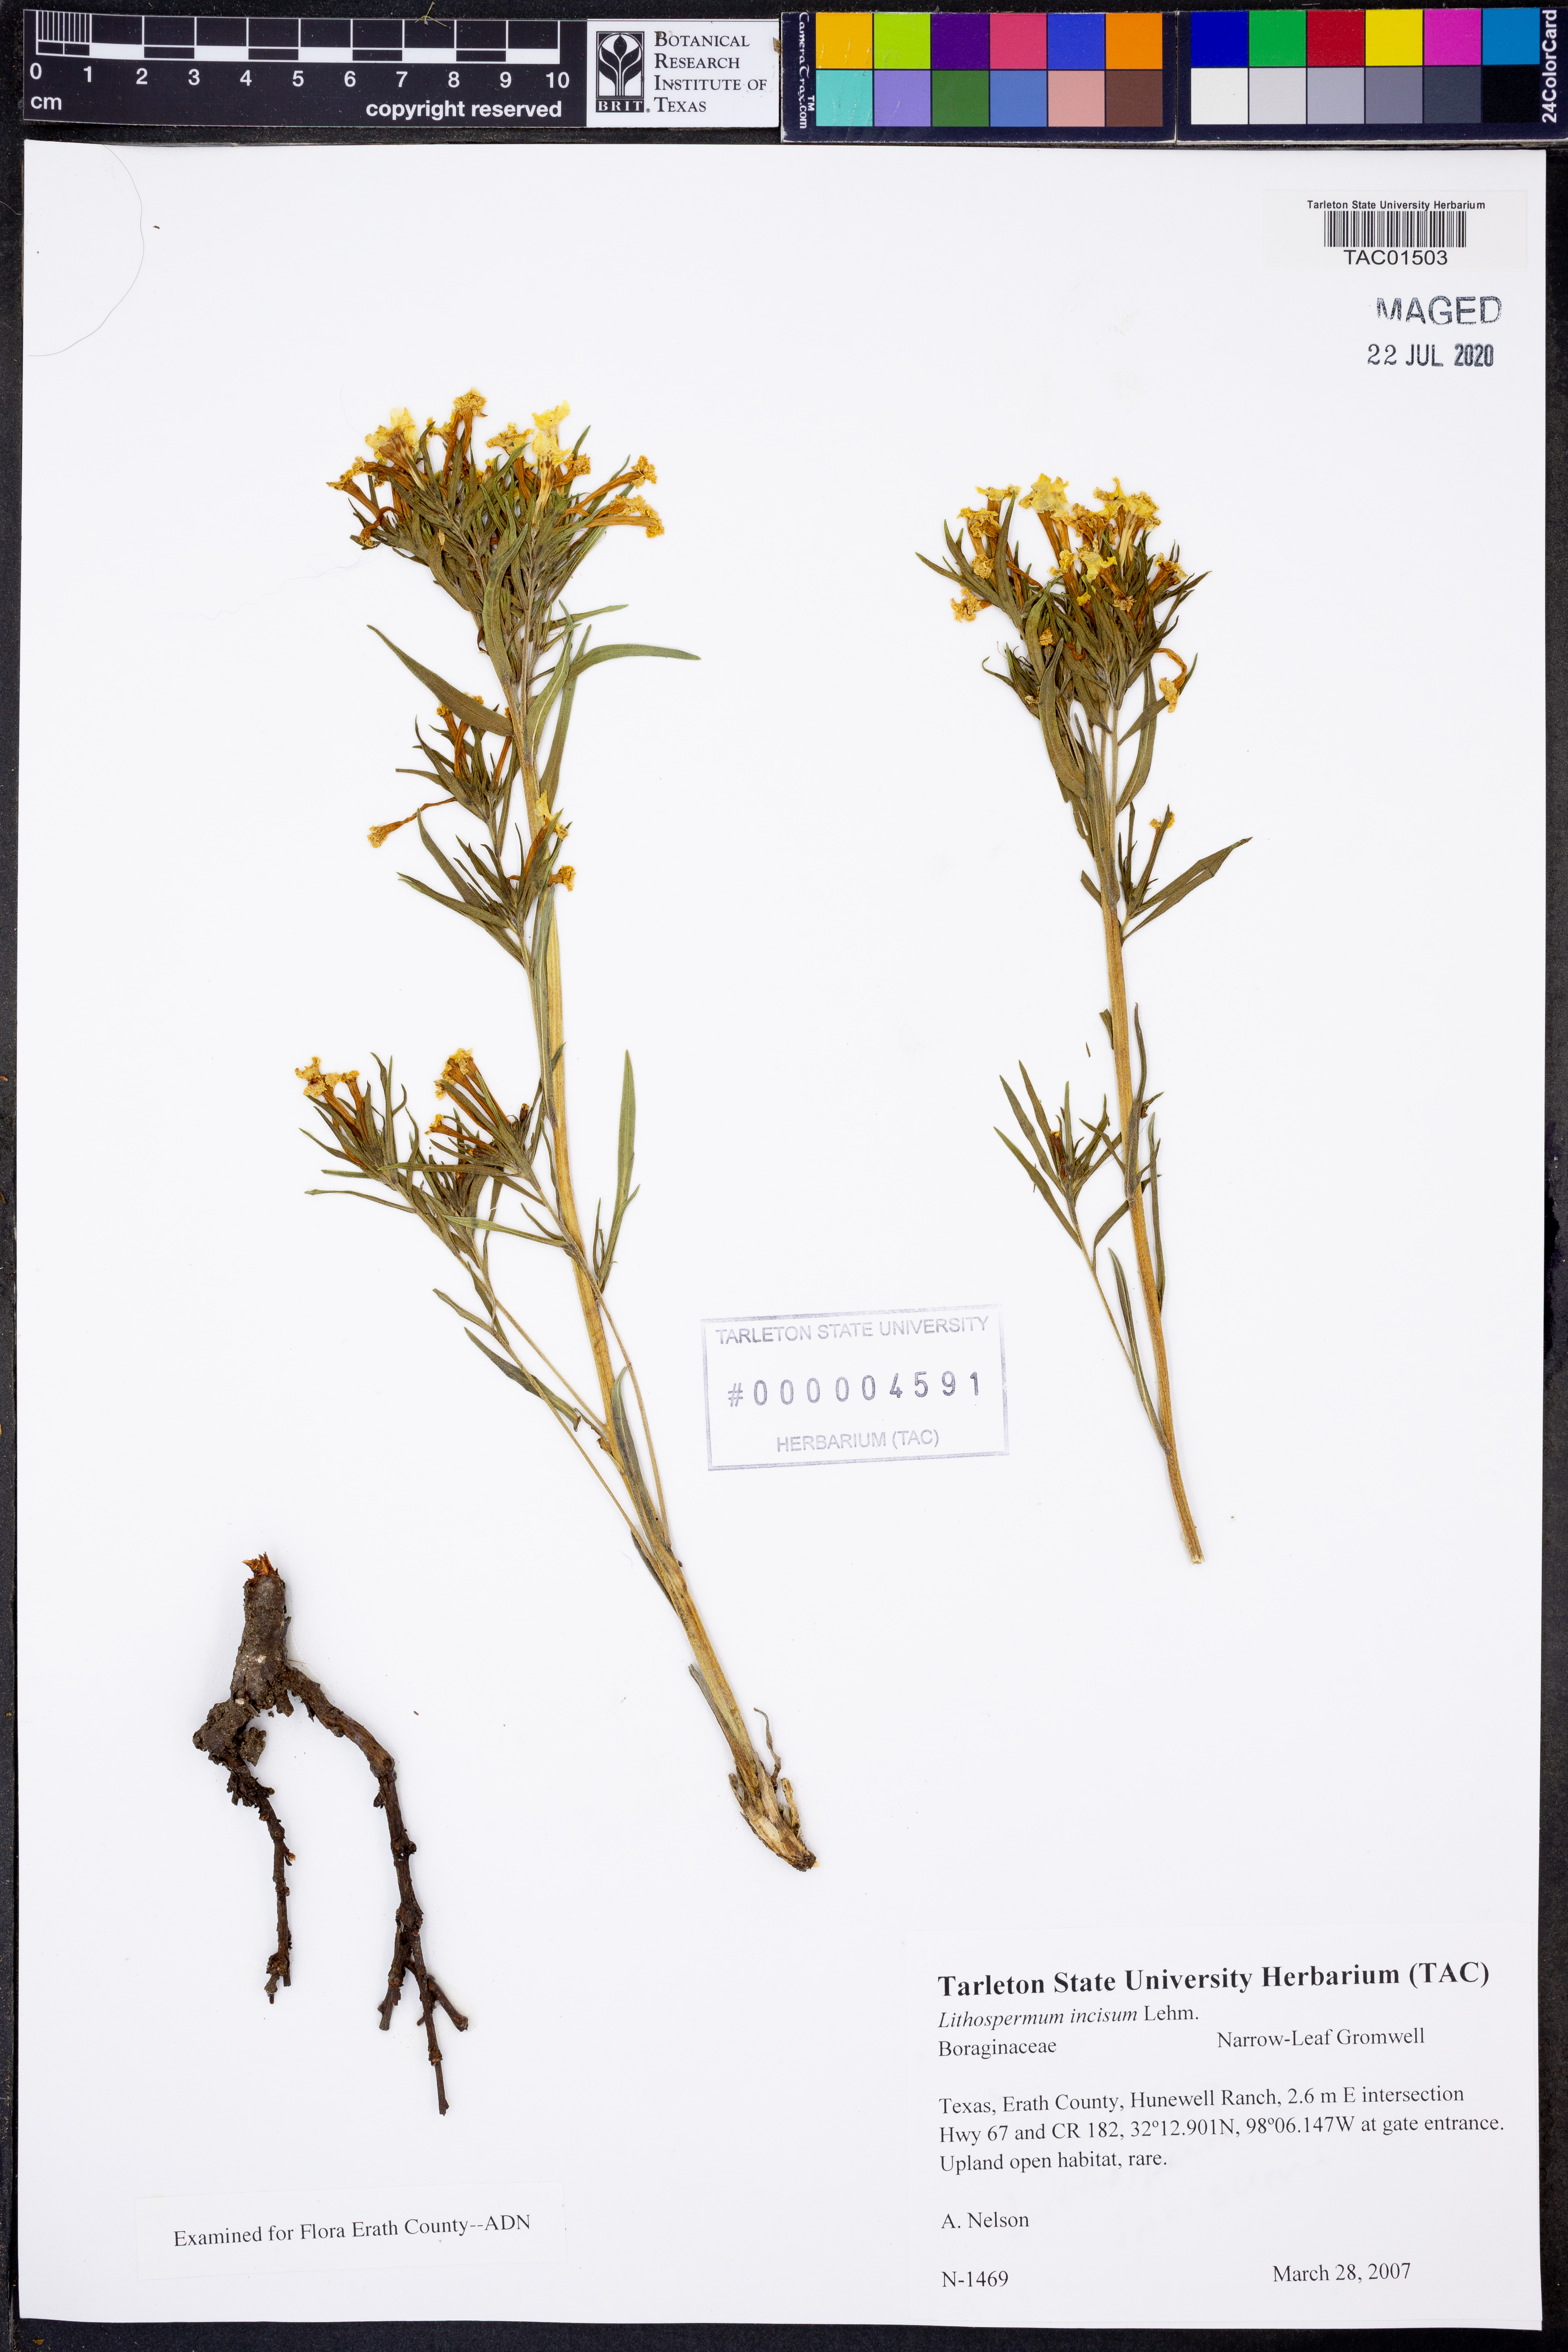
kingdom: Plantae
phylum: Tracheophyta
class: Magnoliopsida
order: Boraginales
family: Boraginaceae
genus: Lithospermum
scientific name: Lithospermum incisum
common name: Fringed gromwell
